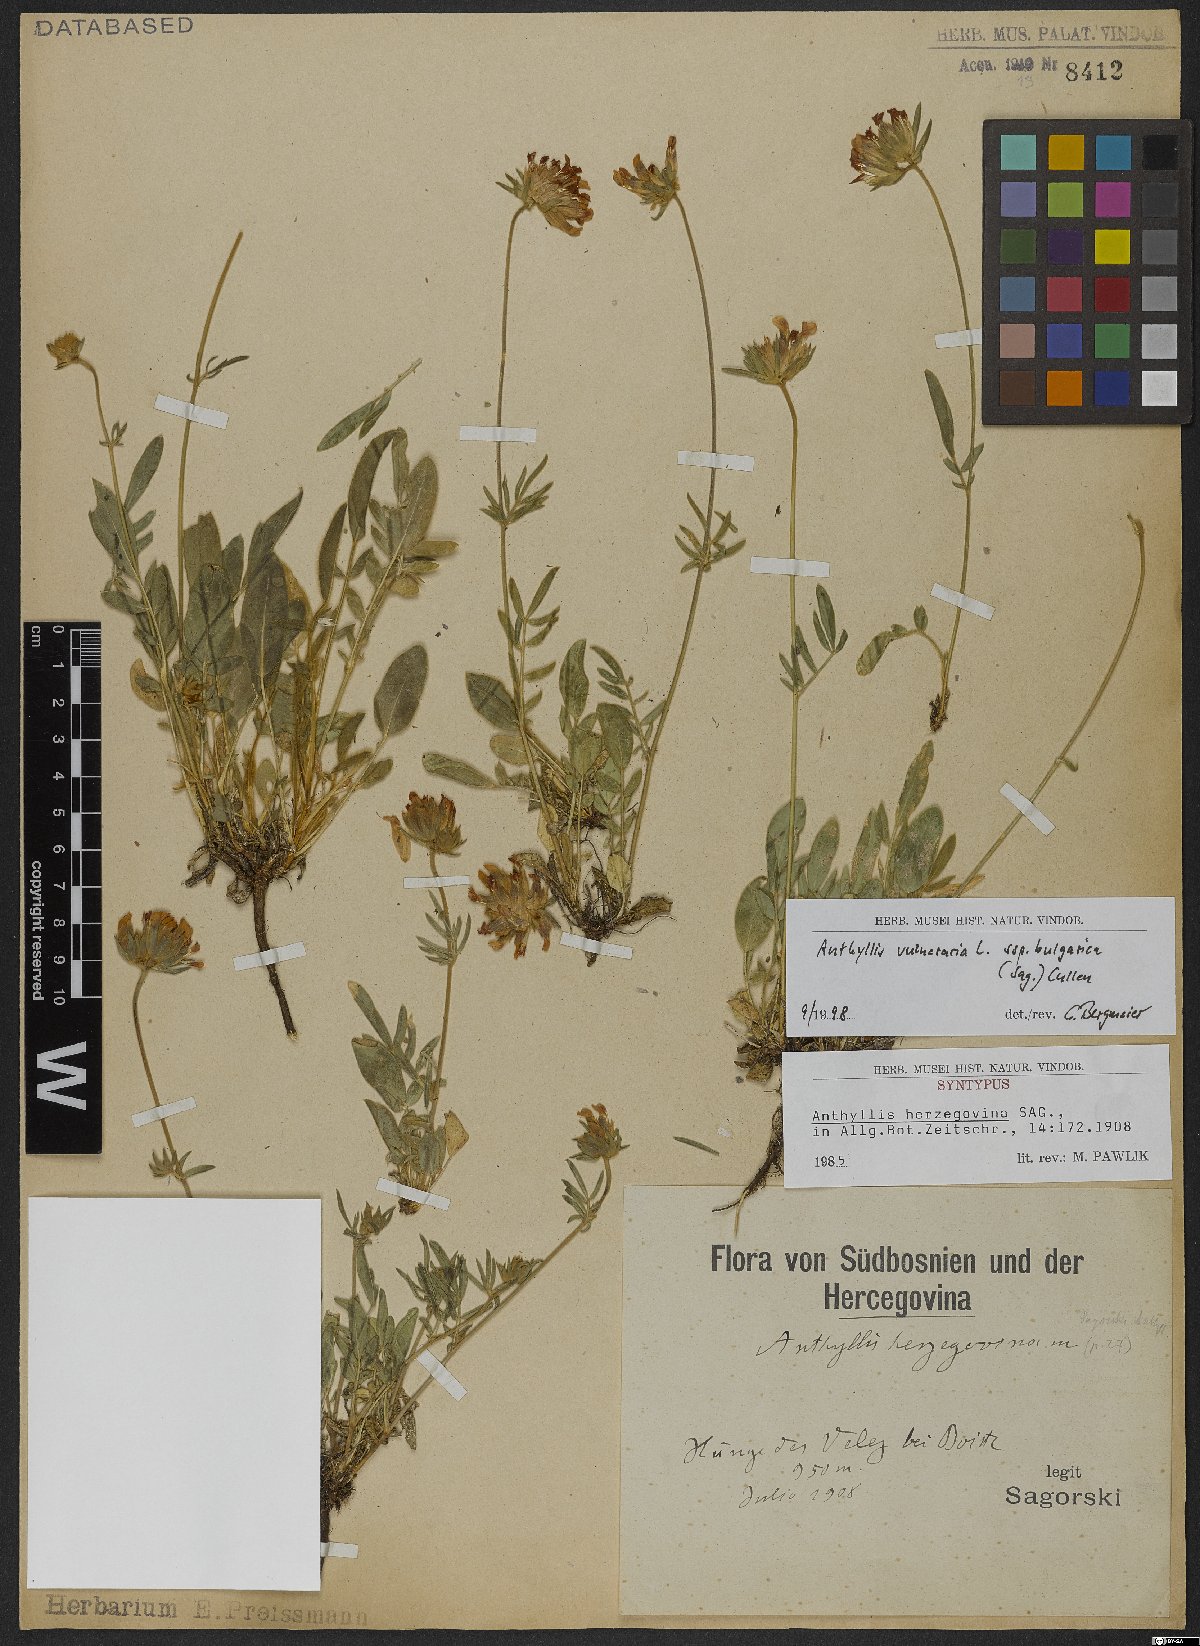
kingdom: Plantae
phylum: Tracheophyta
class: Magnoliopsida
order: Fabales
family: Fabaceae
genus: Anthyllis
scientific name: Anthyllis vulneraria
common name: Kidney vetch
